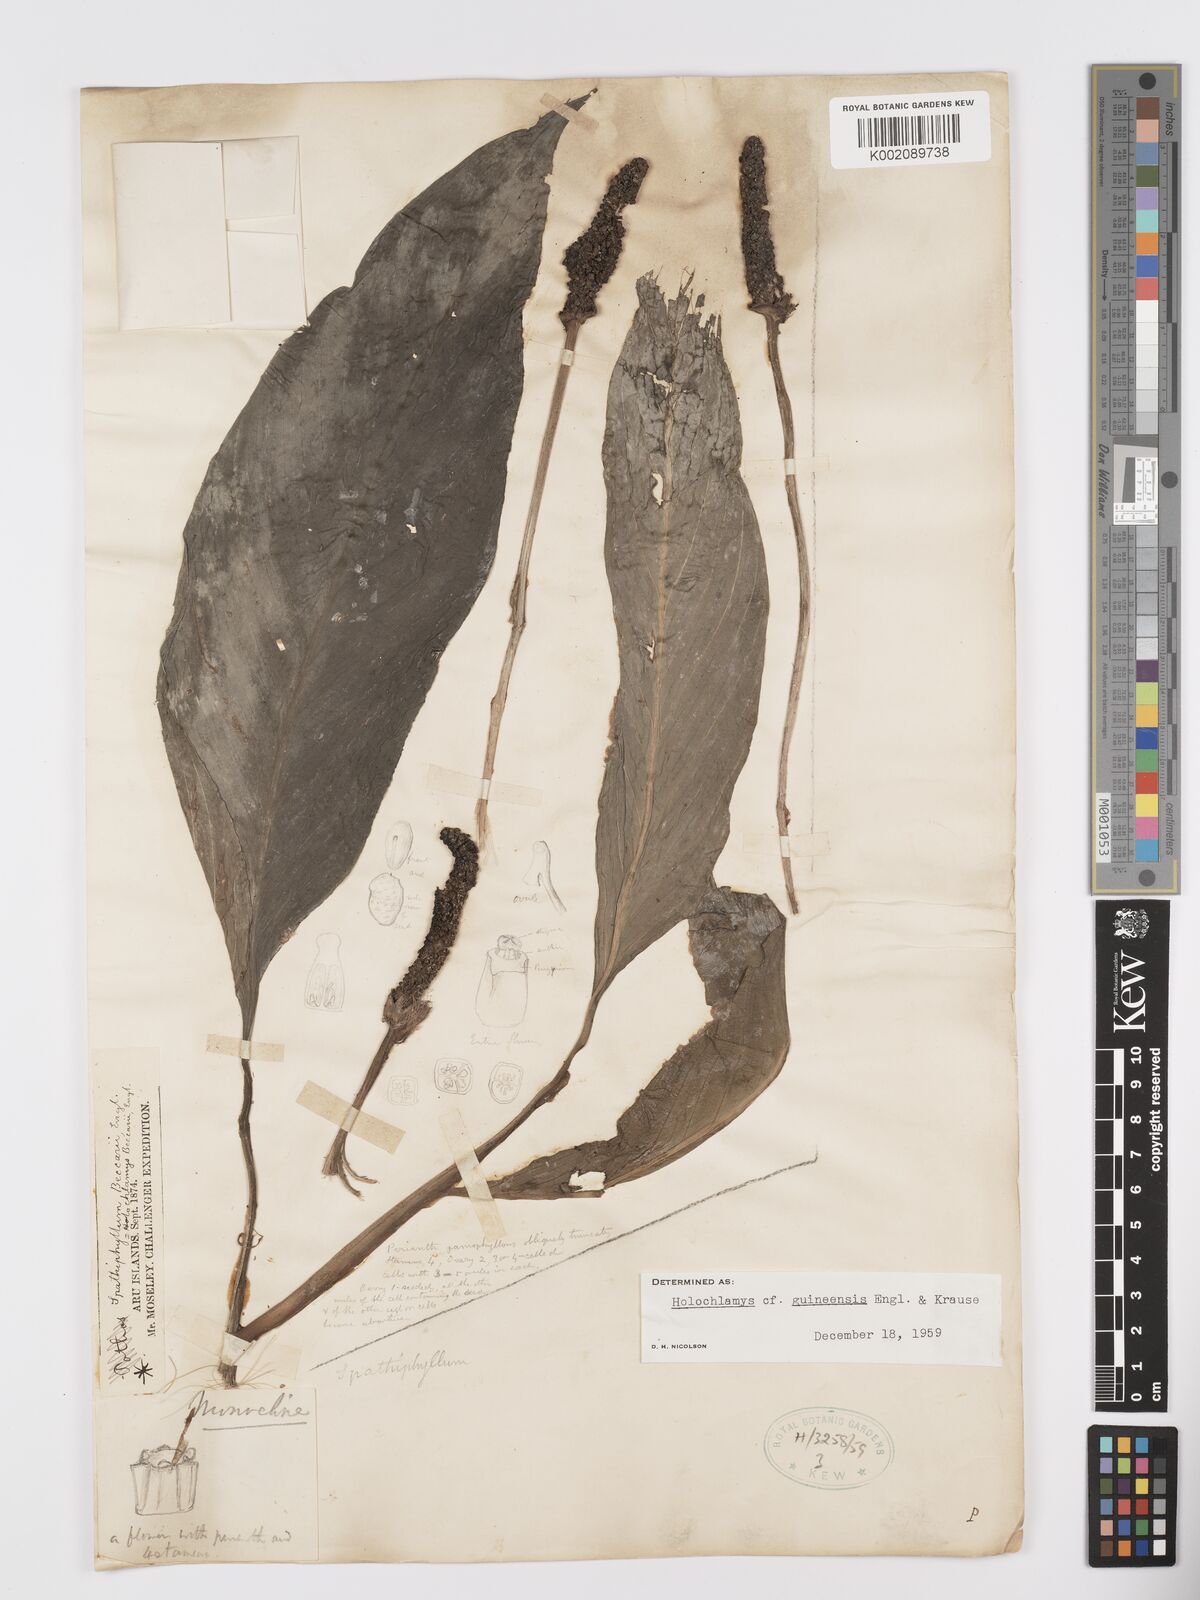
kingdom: Plantae
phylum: Tracheophyta
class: Liliopsida
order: Alismatales
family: Araceae
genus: Holochlamys
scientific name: Holochlamys beccarii
